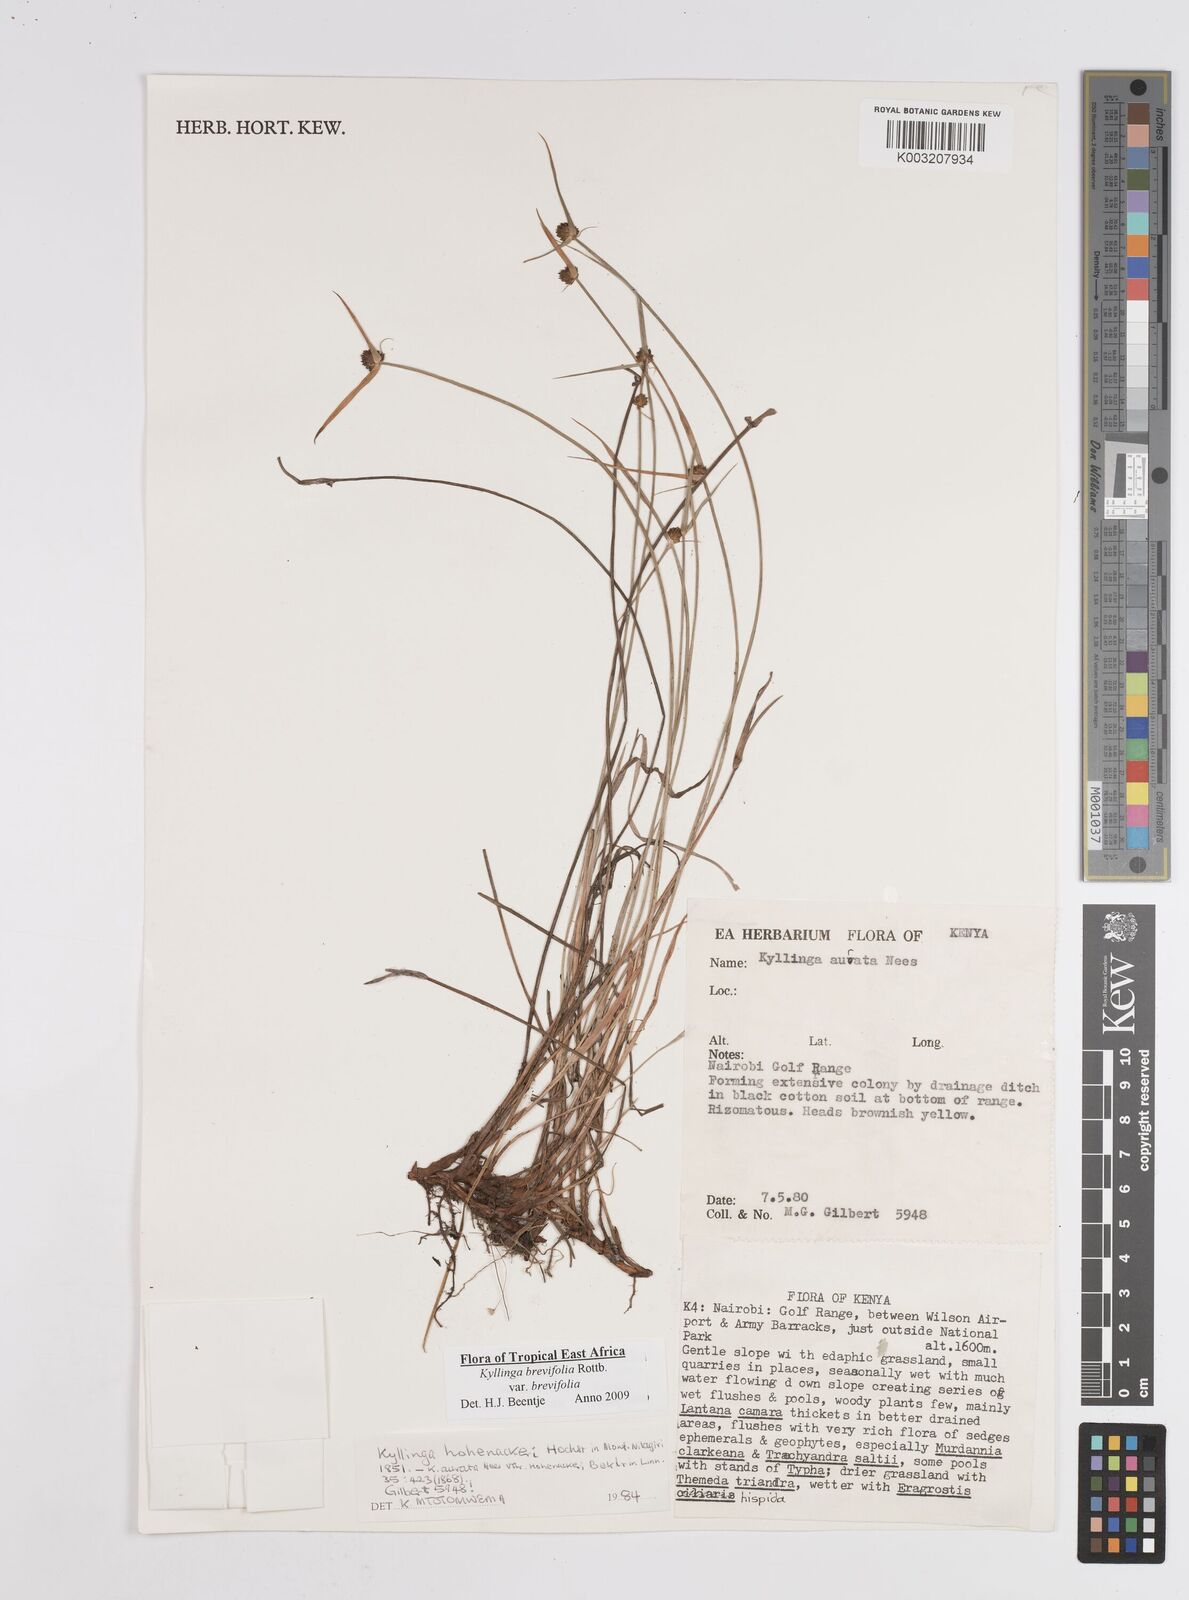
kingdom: Plantae
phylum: Tracheophyta
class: Liliopsida
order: Poales
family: Cyperaceae
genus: Cyperus
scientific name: Cyperus brevifolius
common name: Globe kyllinga
